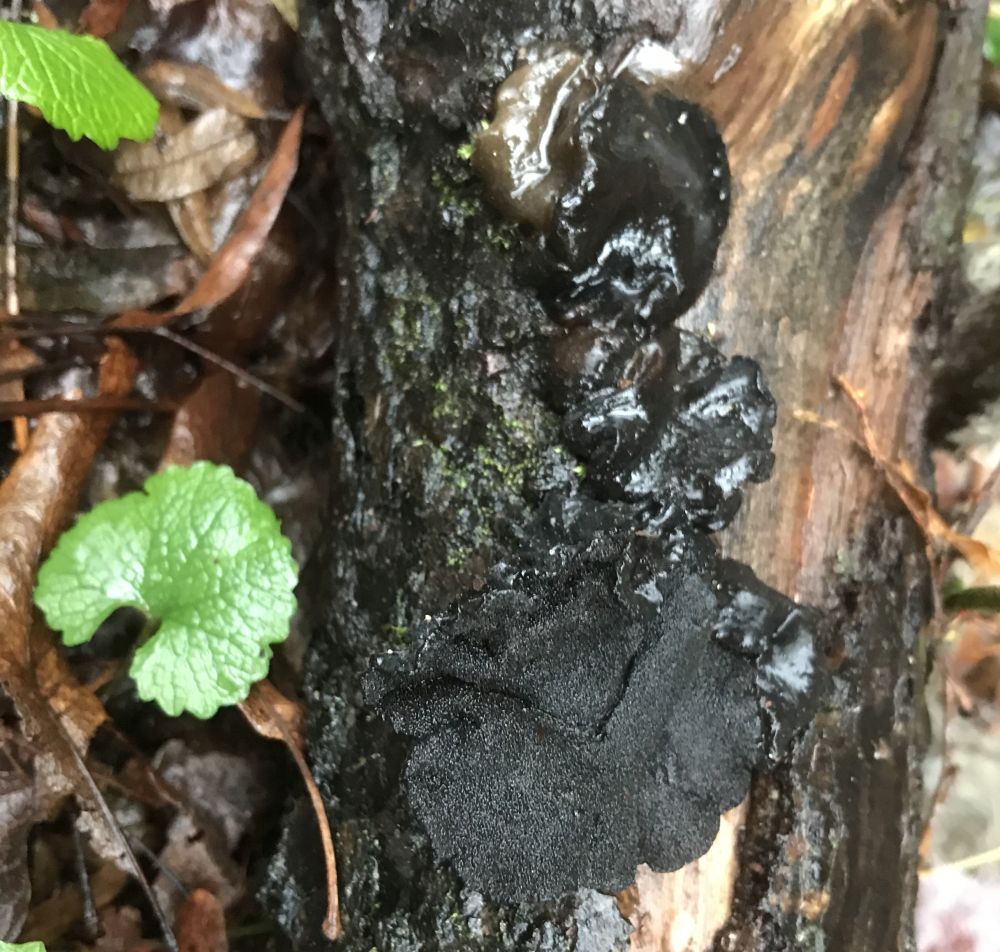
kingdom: Fungi
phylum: Basidiomycota
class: Agaricomycetes
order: Auriculariales
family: Auriculariaceae
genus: Exidia
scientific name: Exidia glandulosa
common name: ege-bævretop
